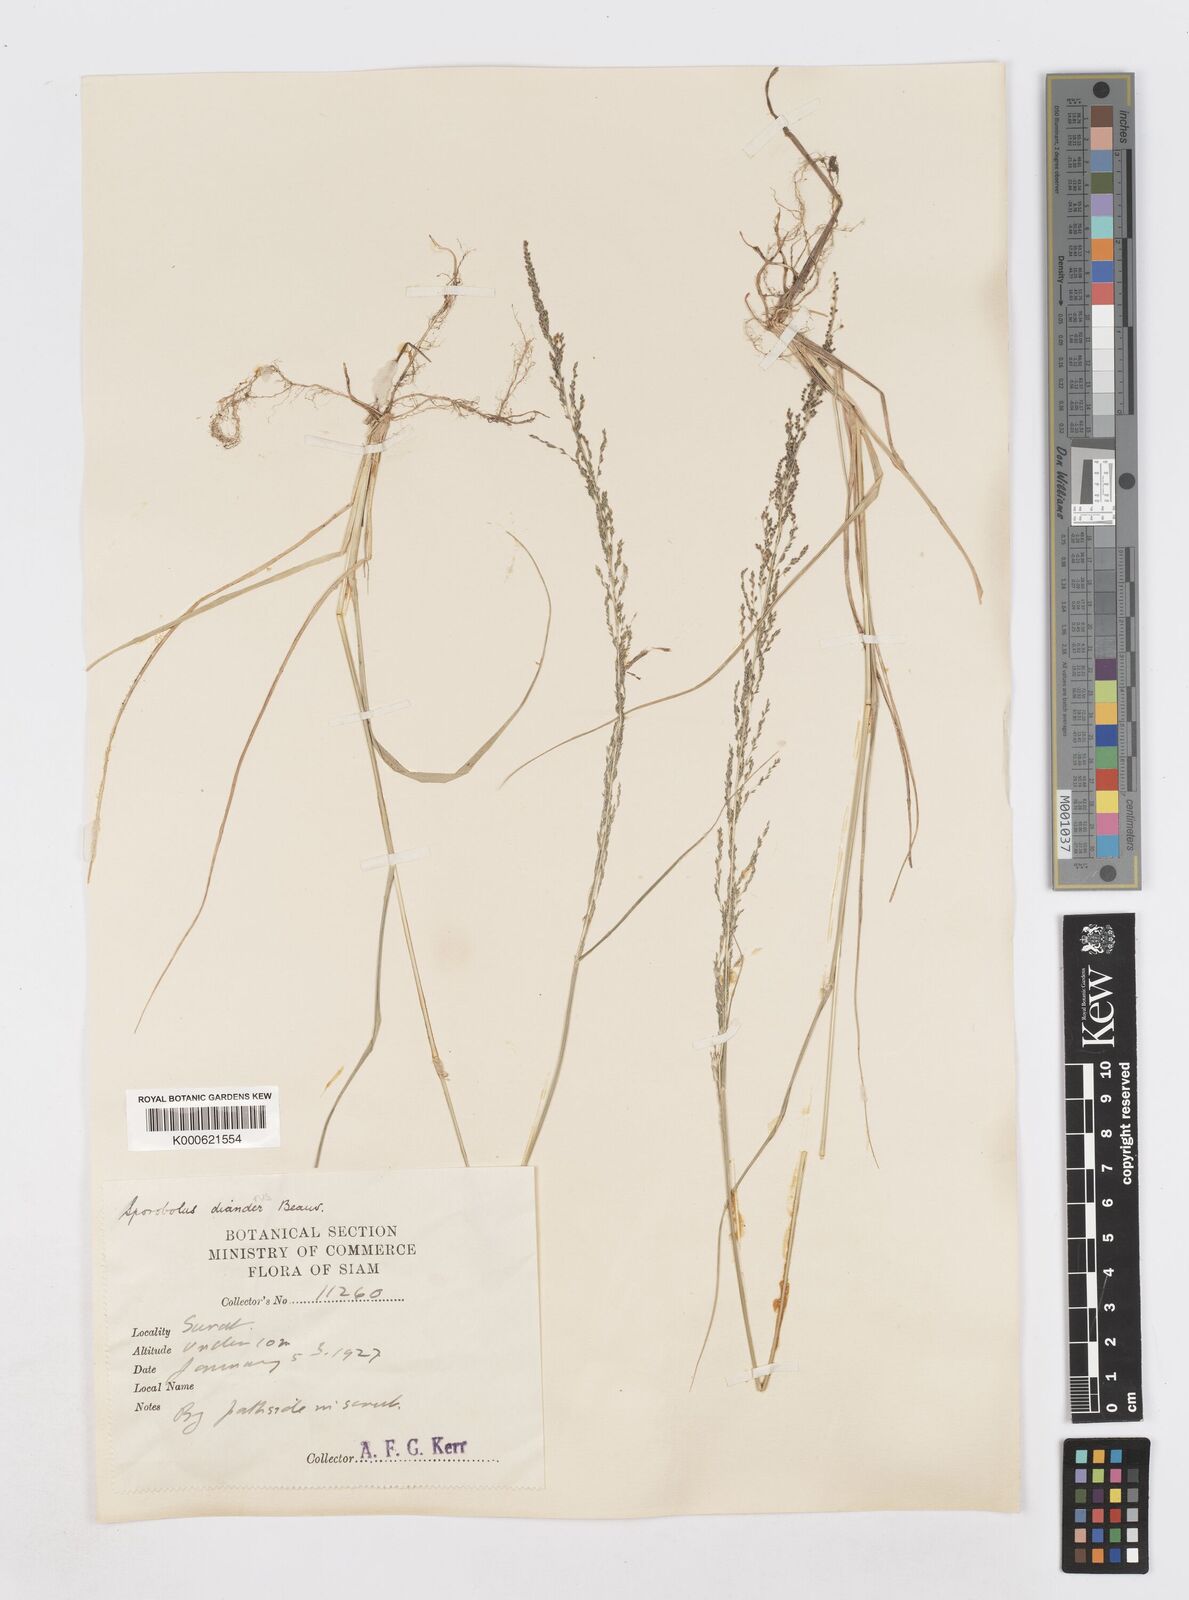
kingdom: Plantae
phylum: Tracheophyta
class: Liliopsida
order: Poales
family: Poaceae
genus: Sporobolus
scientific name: Sporobolus diandrus
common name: Tussock dropseed
